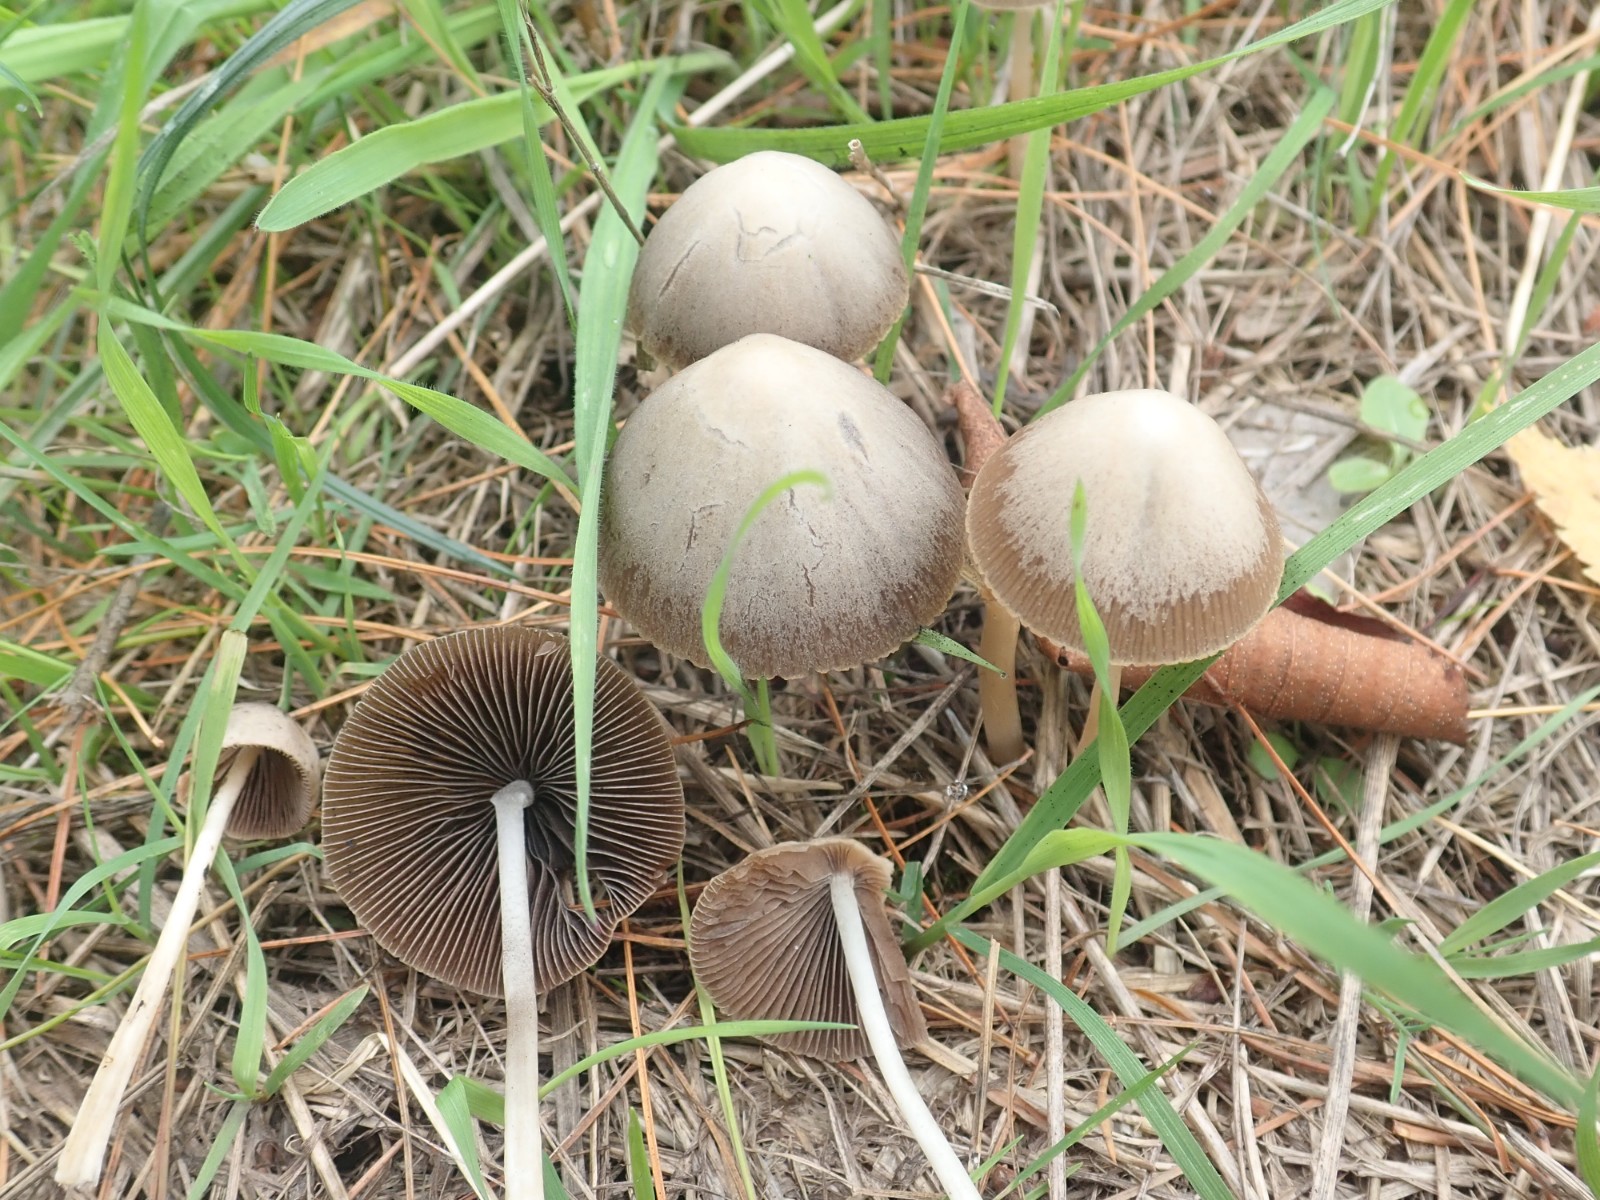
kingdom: Fungi
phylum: Basidiomycota
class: Agaricomycetes
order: Agaricales
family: Psathyrellaceae
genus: Psathyrella
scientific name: Psathyrella
